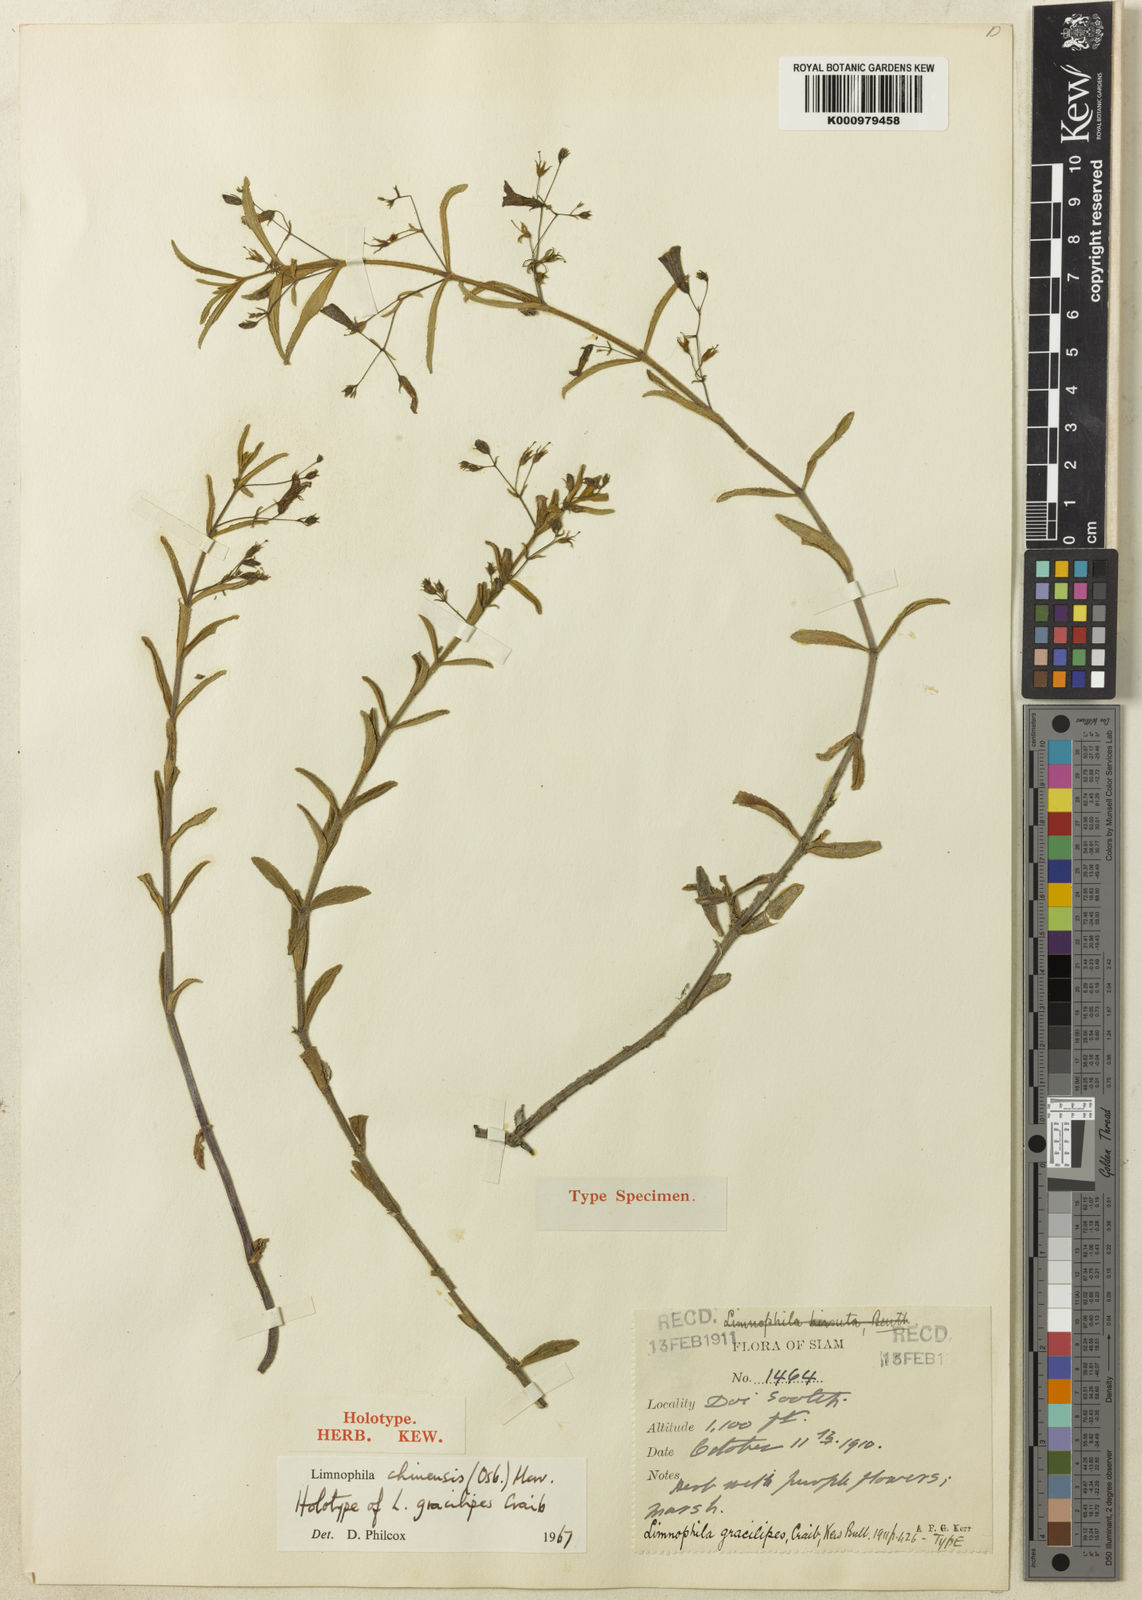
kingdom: Plantae
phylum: Tracheophyta
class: Magnoliopsida
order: Lamiales
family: Plantaginaceae
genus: Limnophila
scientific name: Limnophila chinensis
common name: Finger grass
